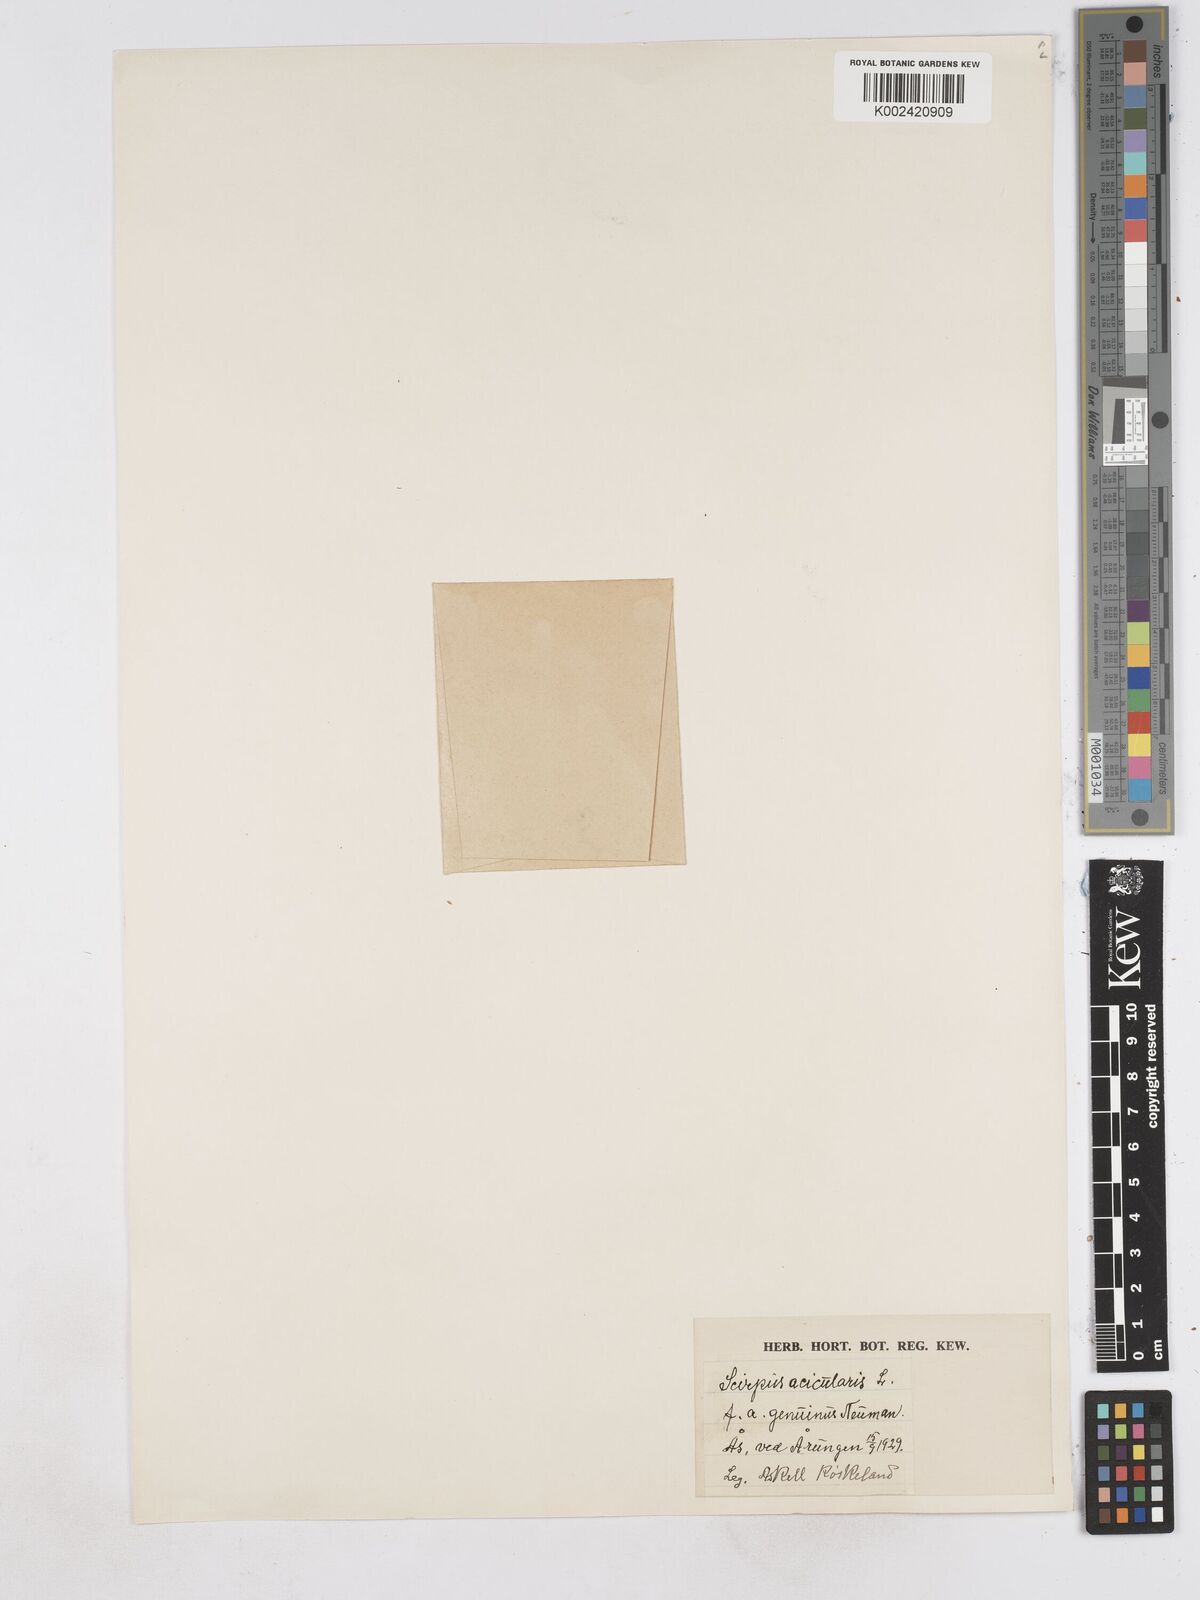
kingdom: Plantae
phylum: Tracheophyta
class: Liliopsida
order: Poales
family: Cyperaceae
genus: Eleocharis
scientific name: Eleocharis acicularis
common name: Needle spike-rush
